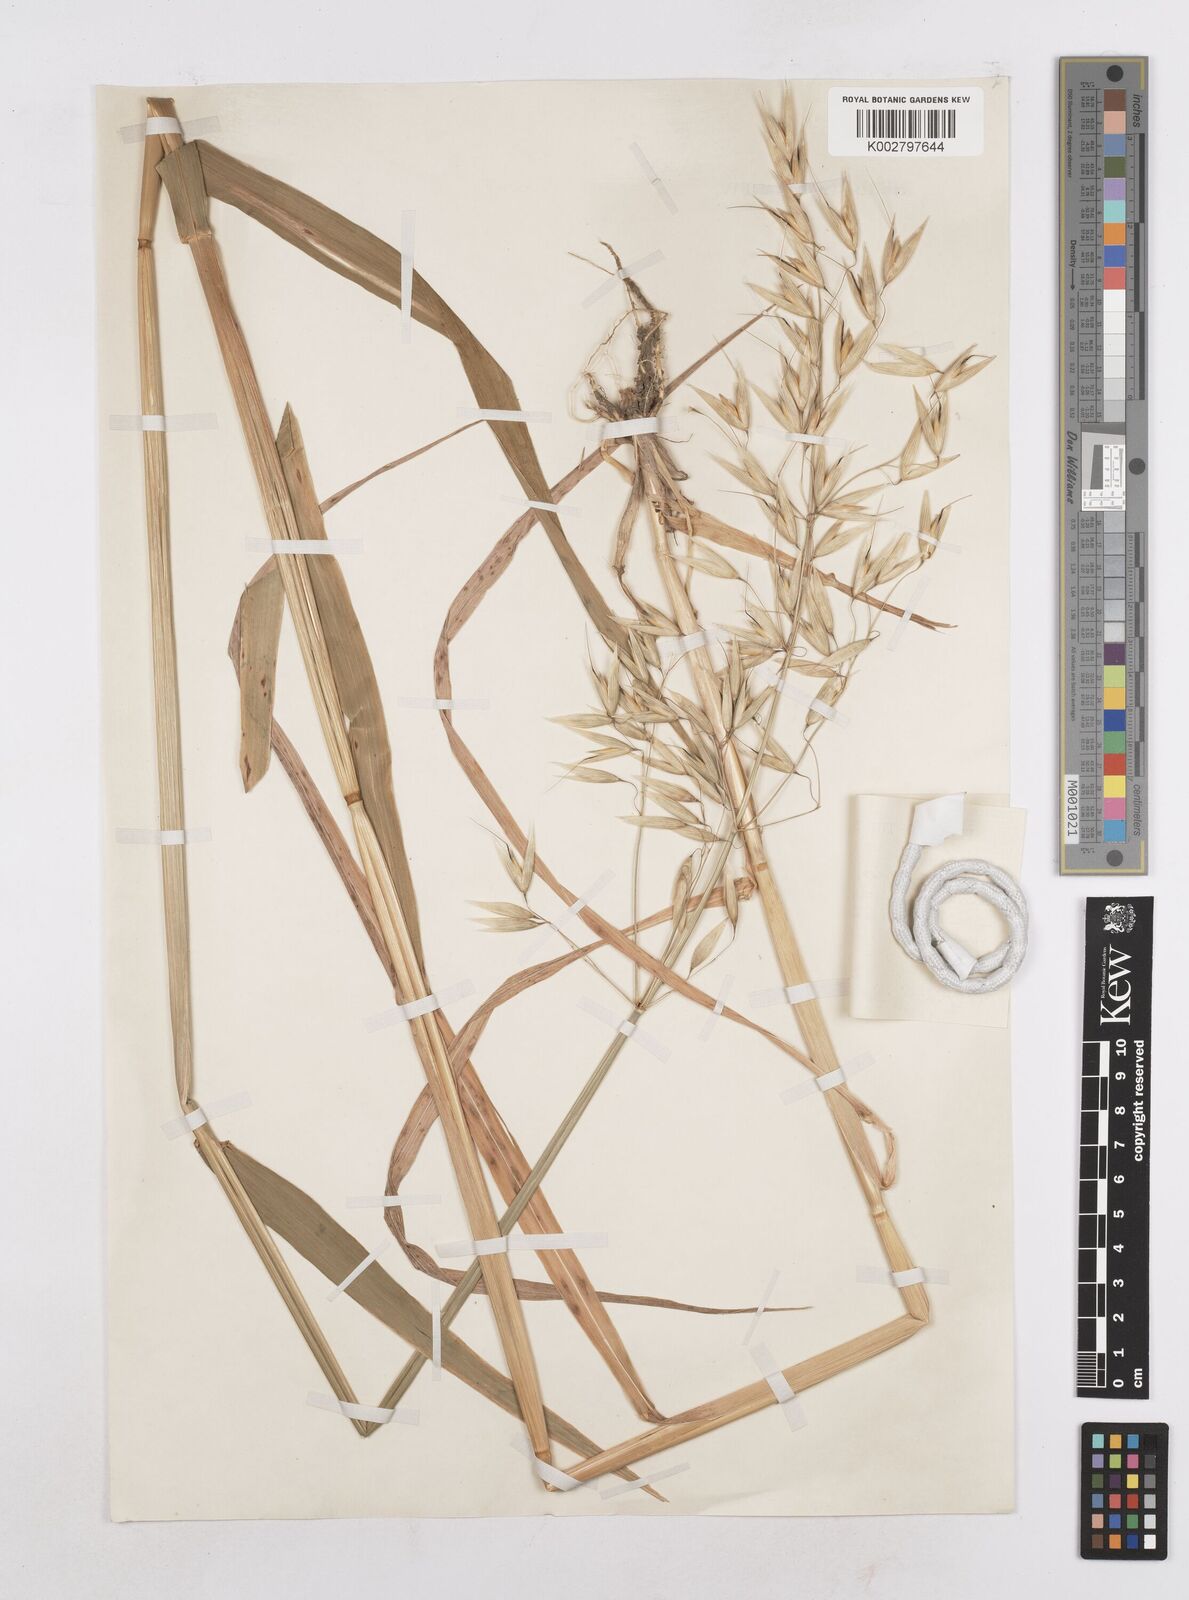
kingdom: Plantae
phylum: Tracheophyta
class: Liliopsida
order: Poales
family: Poaceae
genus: Avena
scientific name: Avena byzantina
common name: Algerian oat
